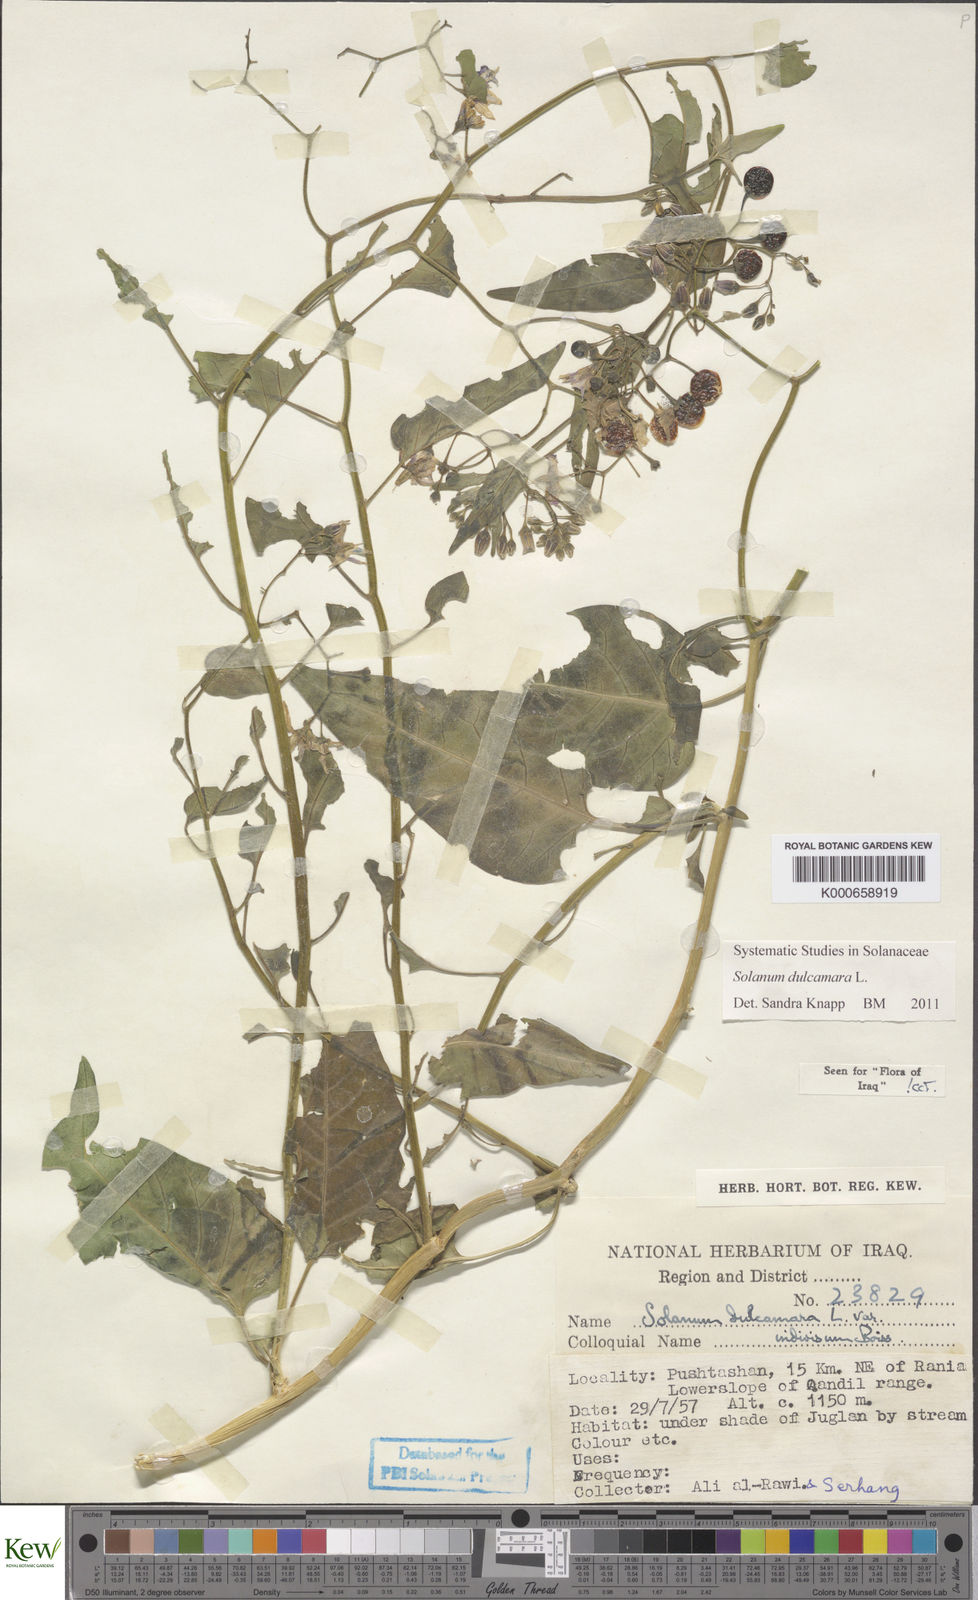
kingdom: Plantae
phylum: Tracheophyta
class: Magnoliopsida
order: Solanales
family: Solanaceae
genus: Solanum
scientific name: Solanum dulcamara
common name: Climbing nightshade
